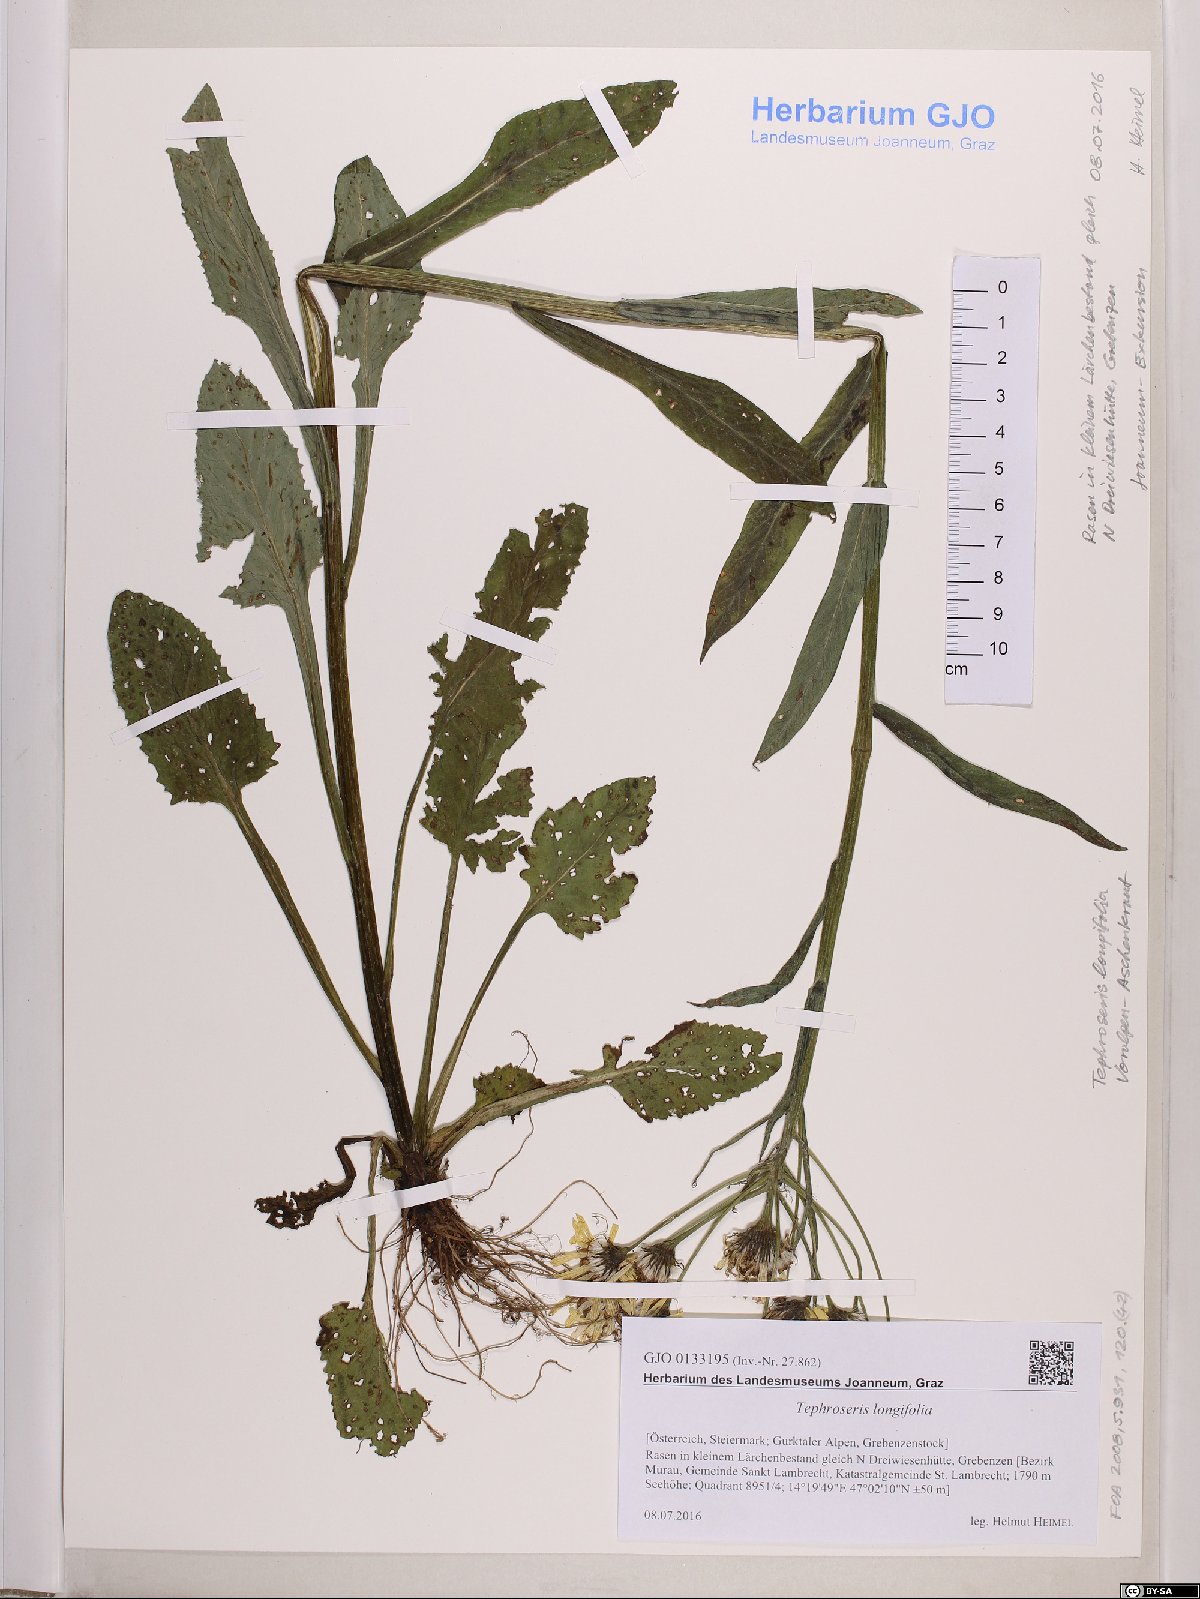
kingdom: Plantae
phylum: Tracheophyta
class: Magnoliopsida
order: Asterales
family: Asteraceae
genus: Tephroseris
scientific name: Tephroseris longifolia
